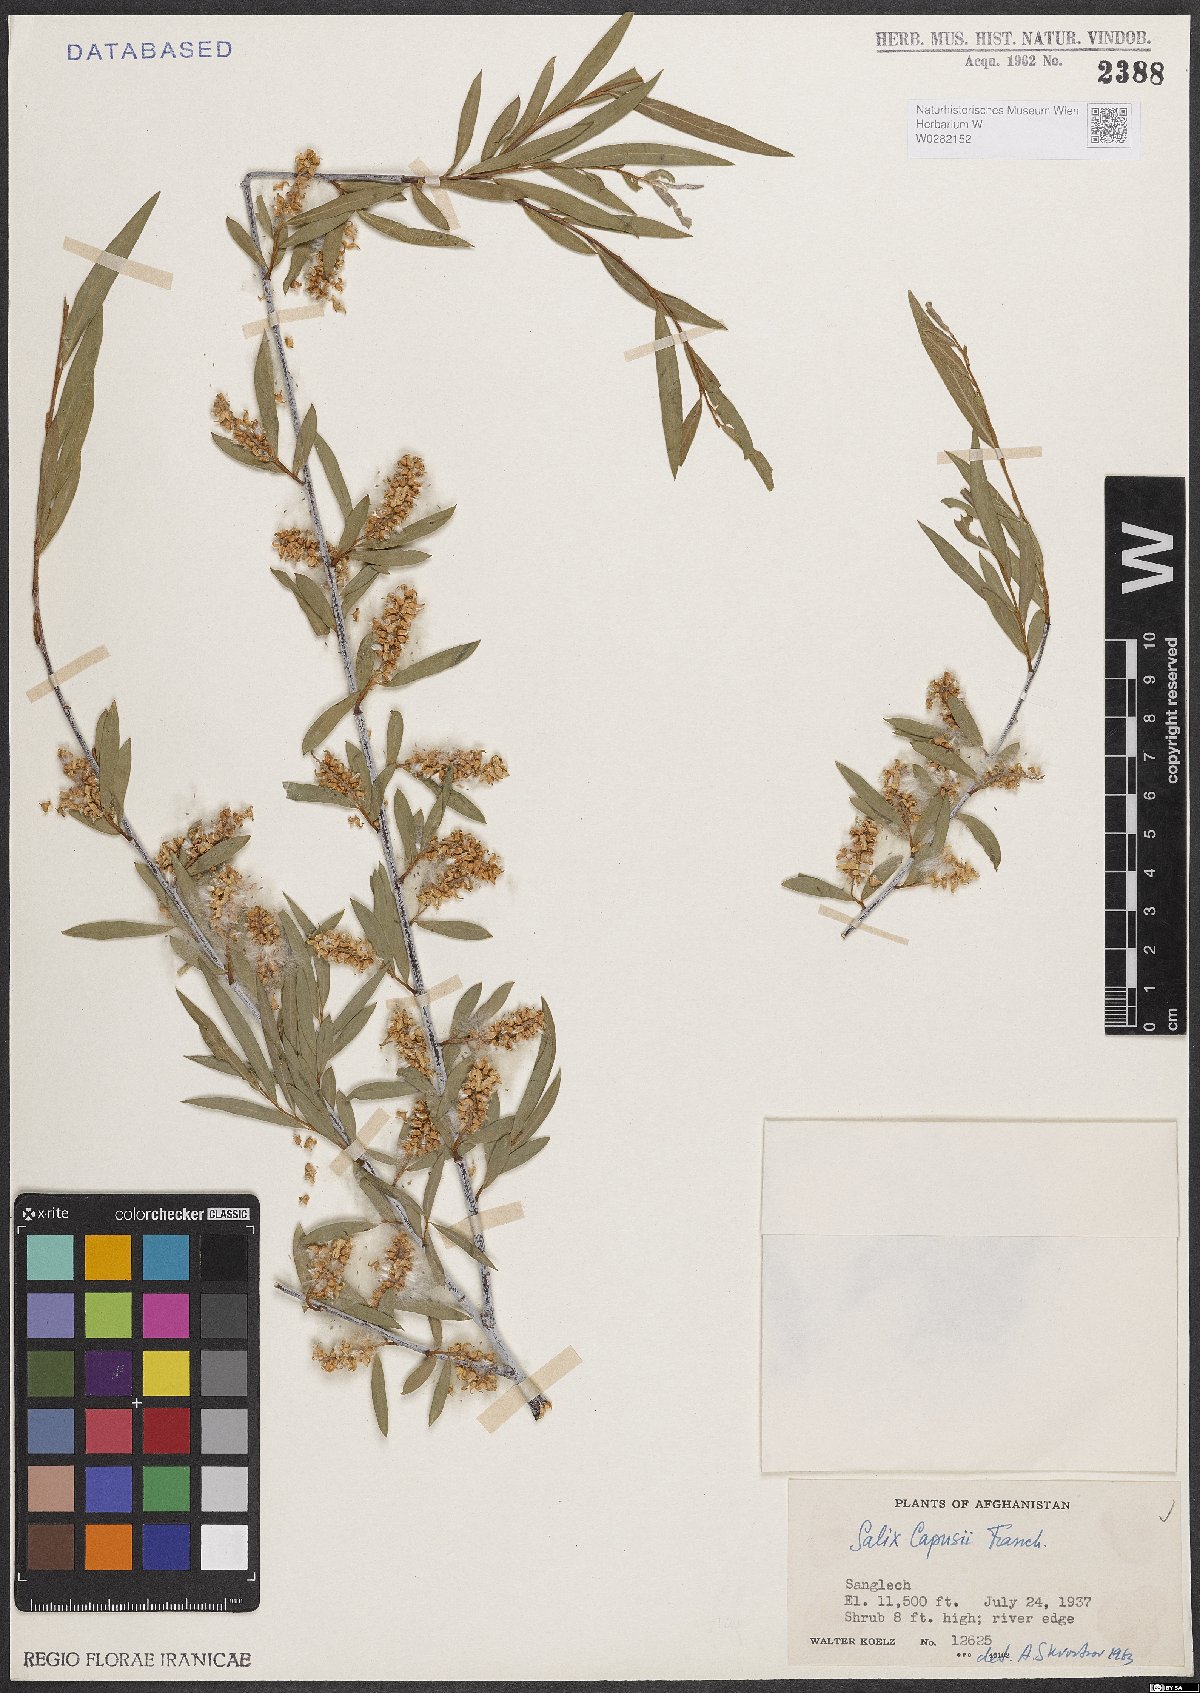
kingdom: Plantae
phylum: Tracheophyta
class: Magnoliopsida
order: Malpighiales
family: Salicaceae
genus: Salix
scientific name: Salix capusii
